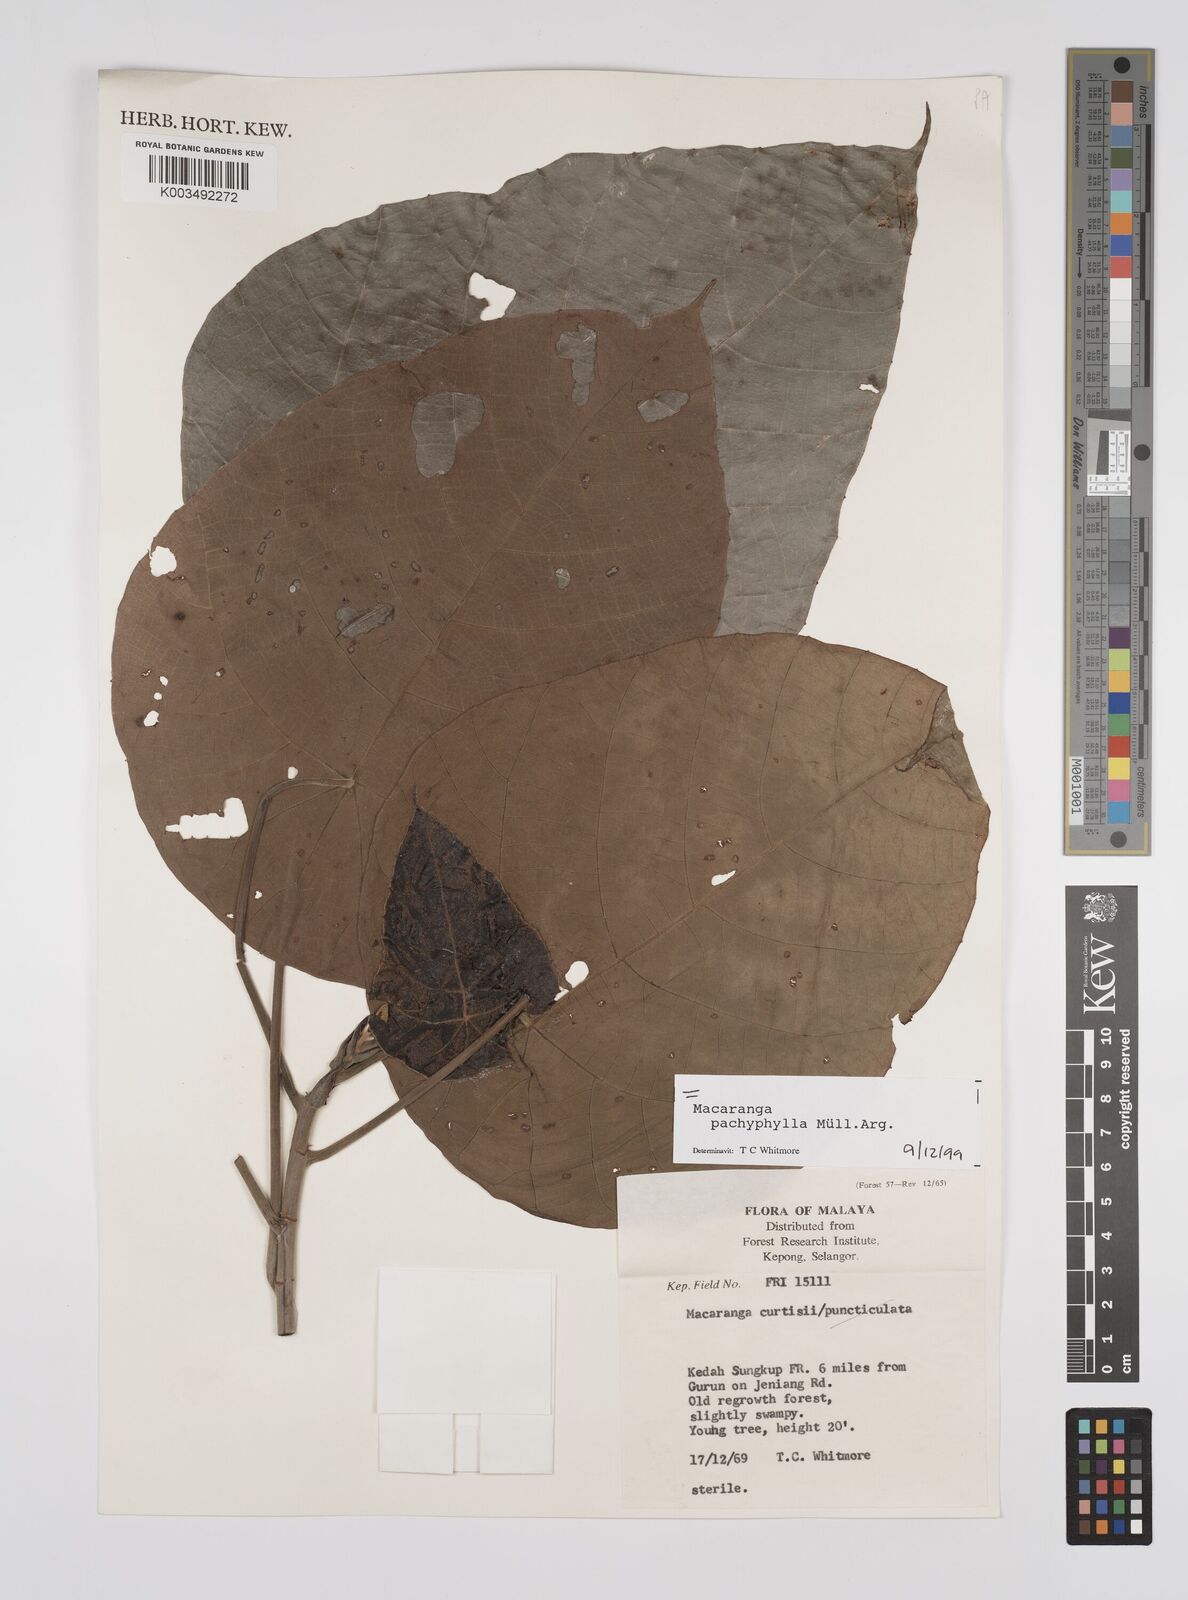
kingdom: Plantae
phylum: Tracheophyta
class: Magnoliopsida
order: Malpighiales
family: Euphorbiaceae
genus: Macaranga
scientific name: Macaranga pachyphylla
